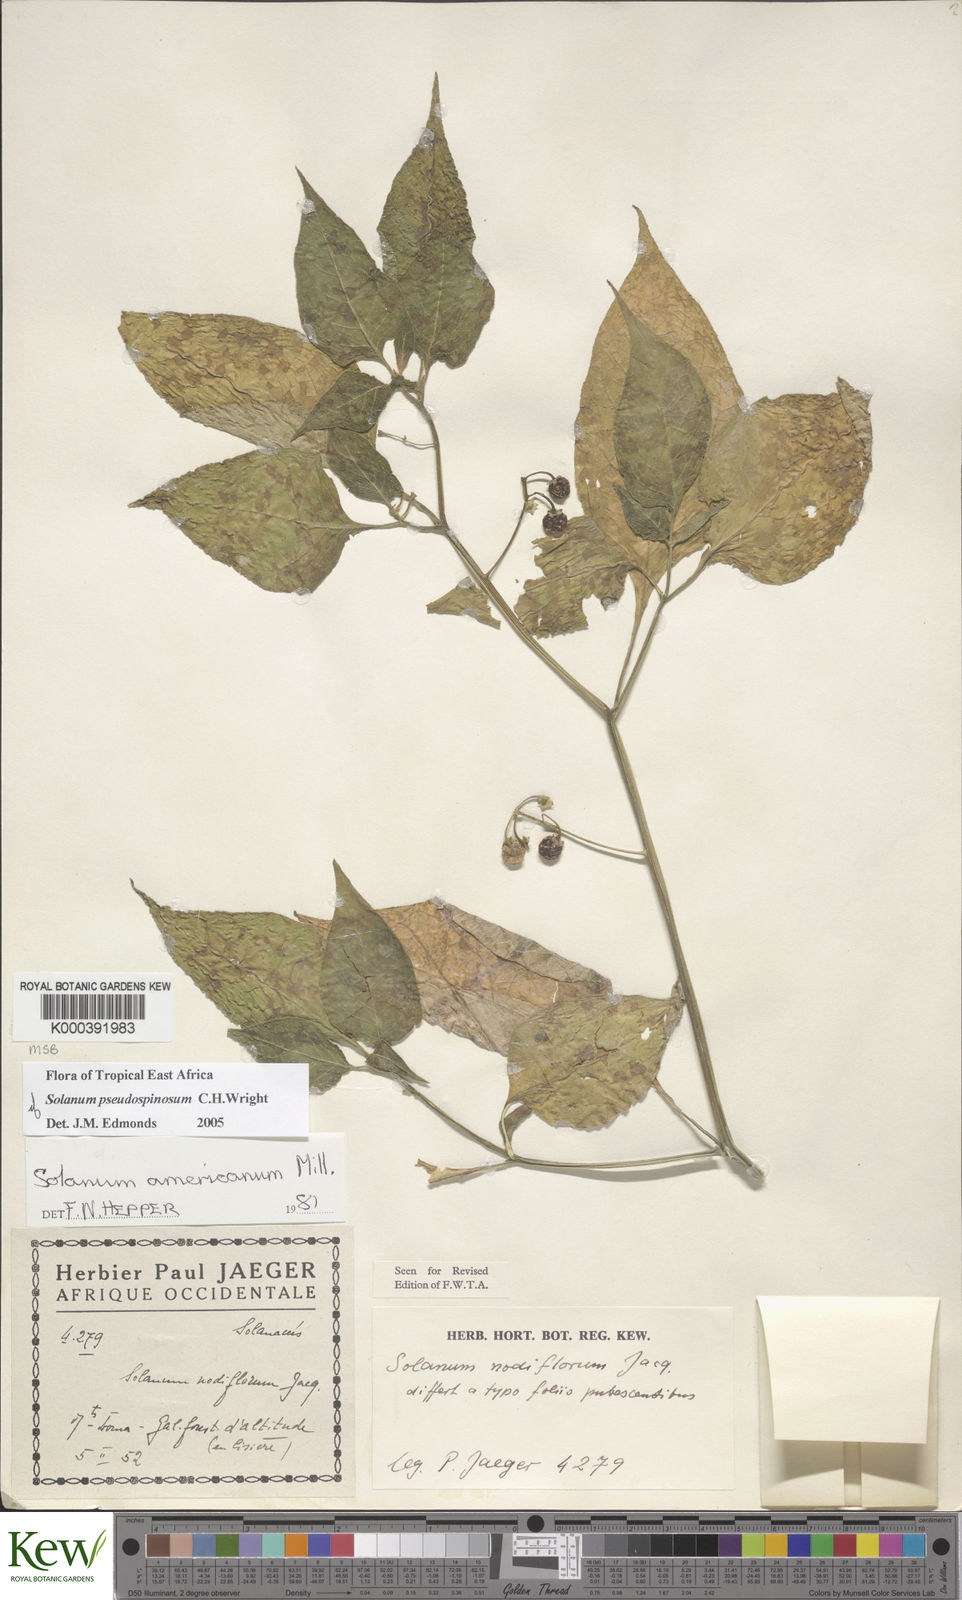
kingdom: Plantae
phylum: Tracheophyta
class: Magnoliopsida
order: Solanales
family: Solanaceae
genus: Solanum
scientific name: Solanum tarderemotum
